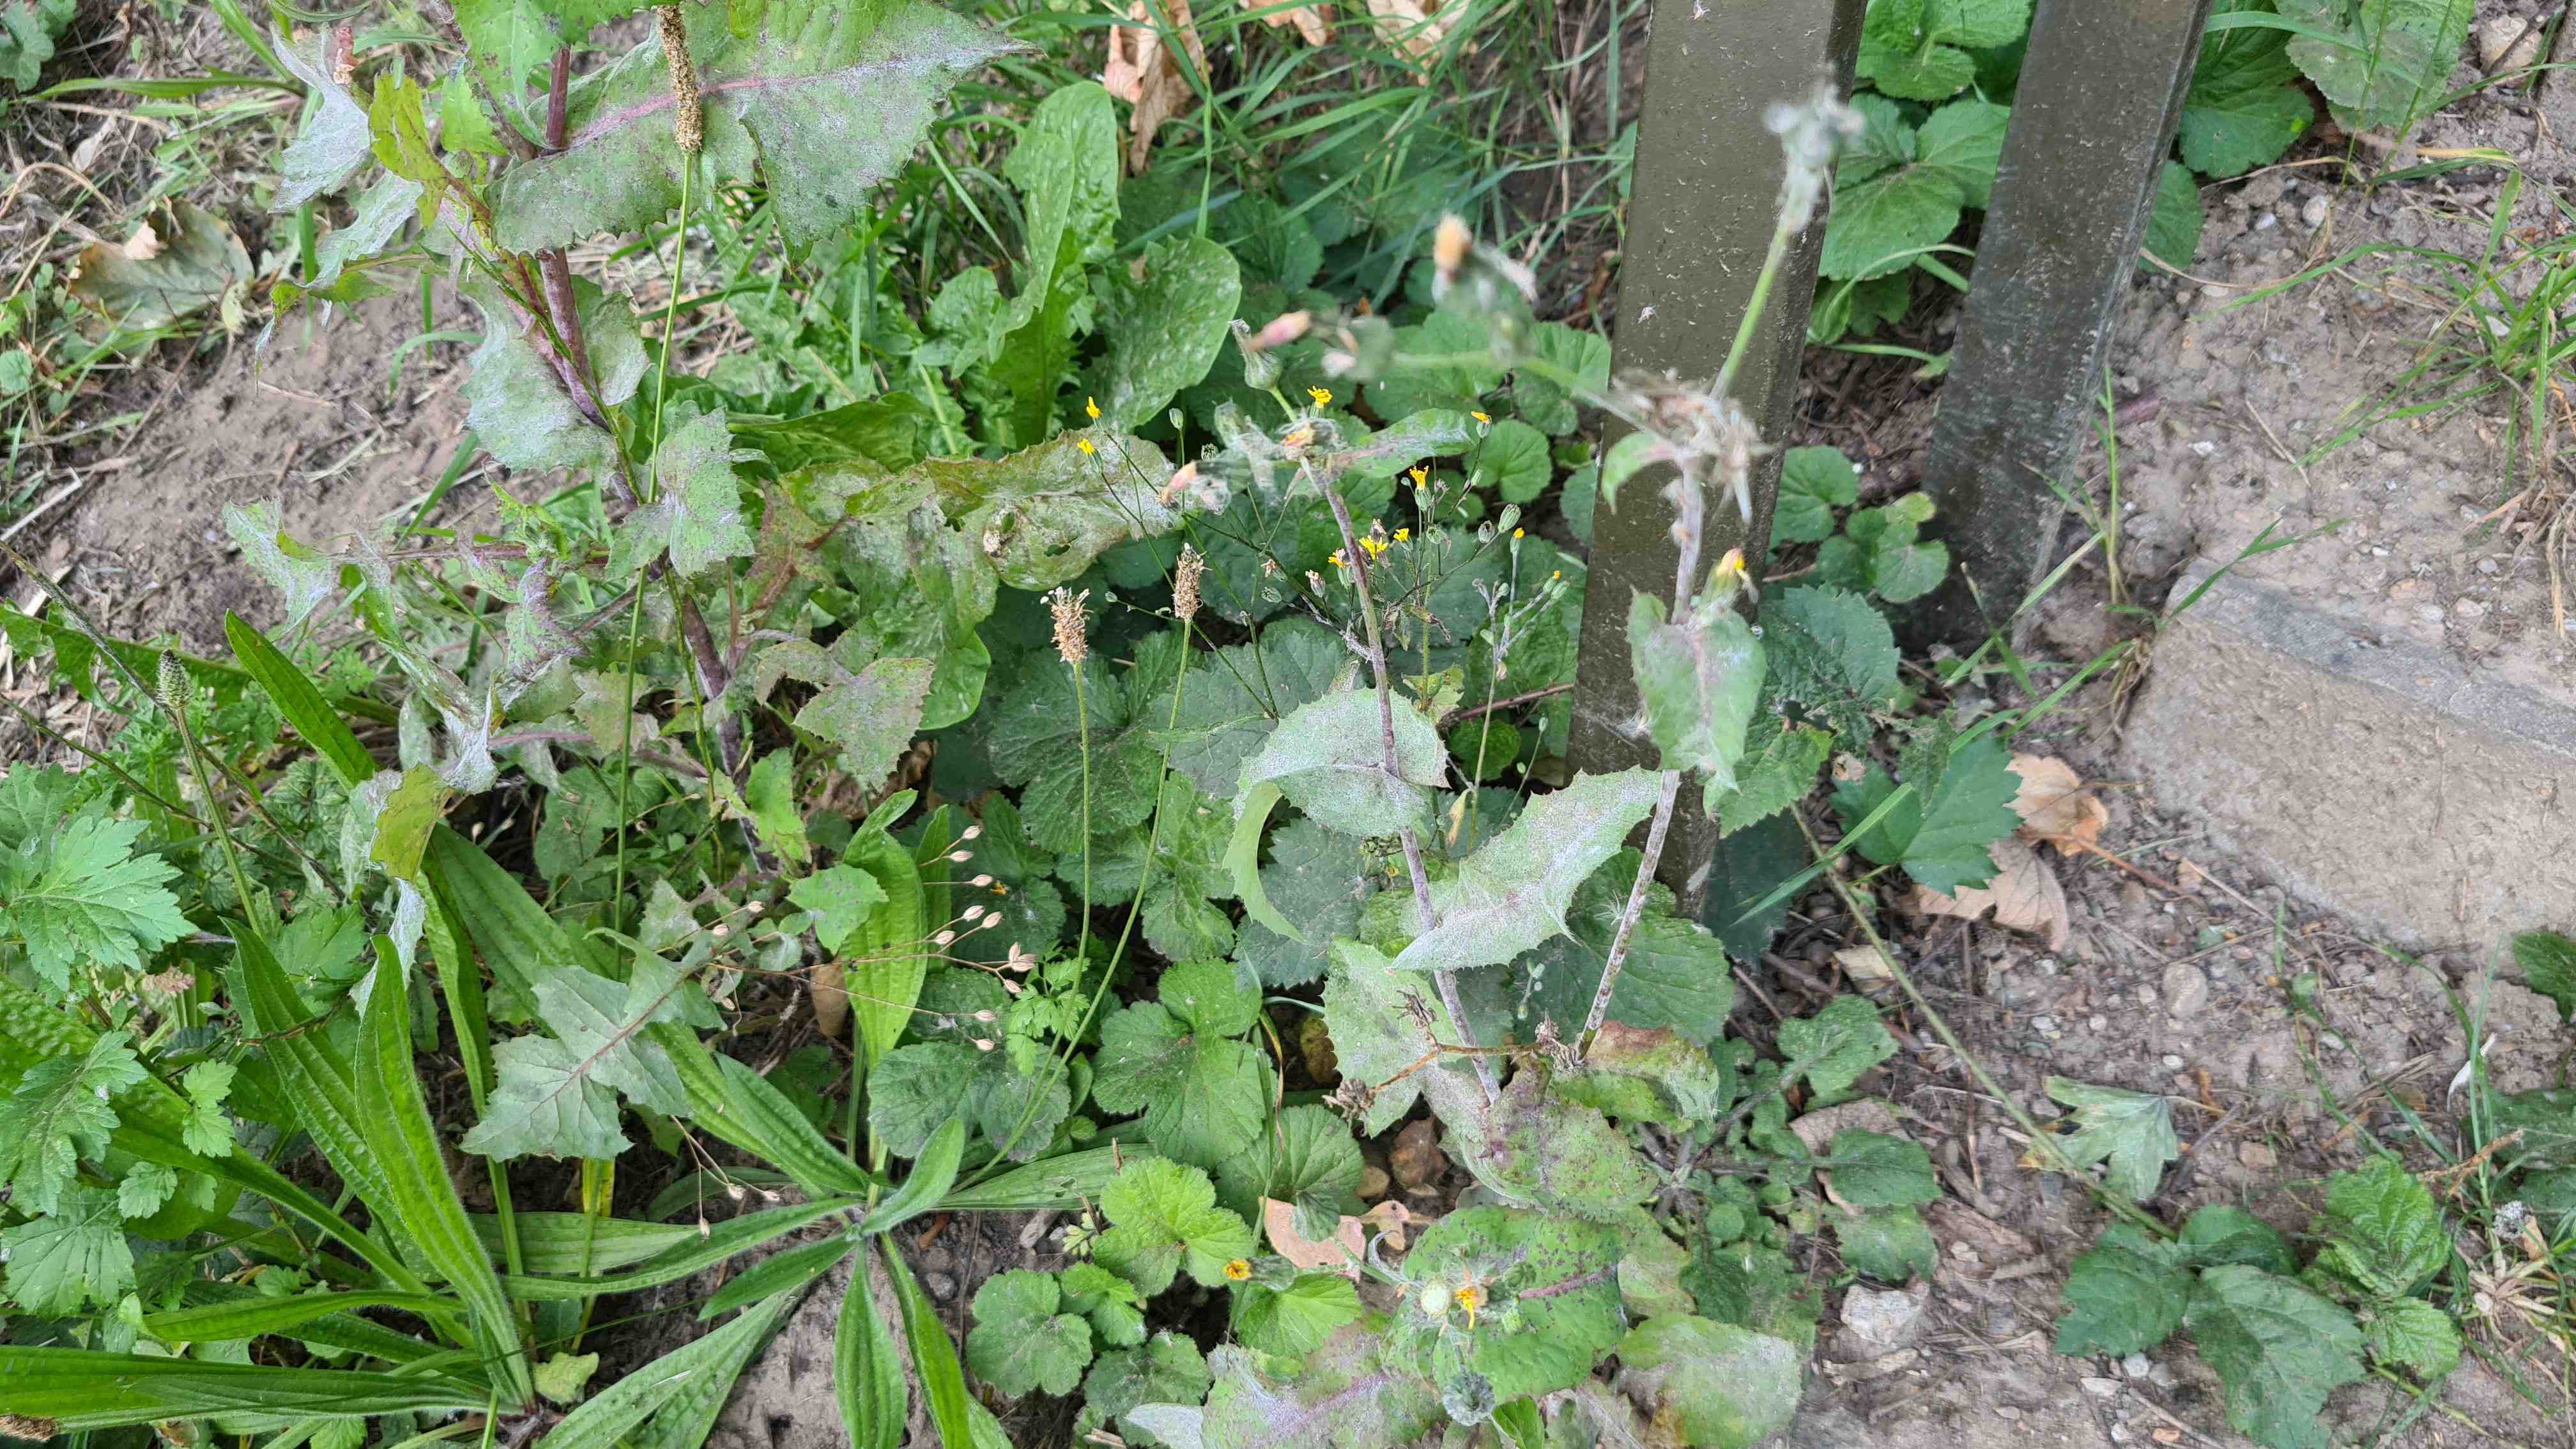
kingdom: Fungi
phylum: Ascomycota
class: Leotiomycetes
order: Helotiales
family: Erysiphaceae
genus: Golovinomyces
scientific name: Golovinomyces sonchicola
